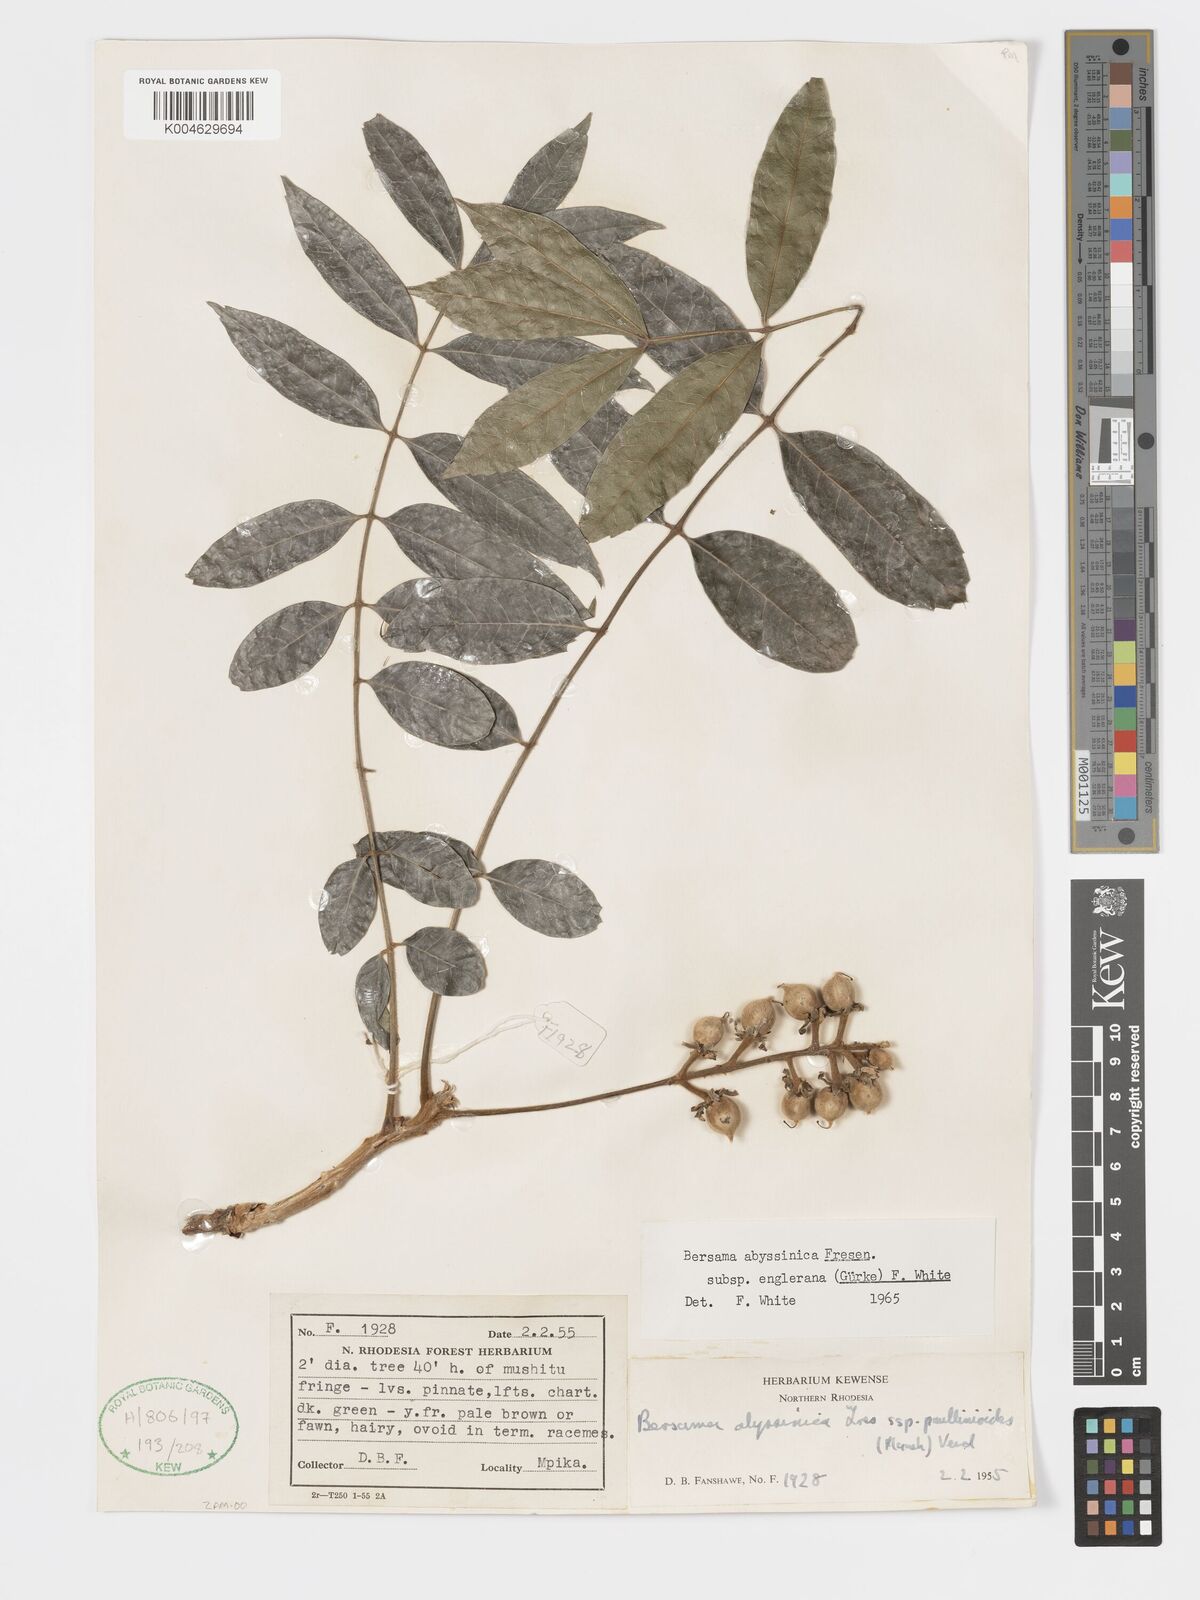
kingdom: Plantae
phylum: Tracheophyta
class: Magnoliopsida
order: Geraniales
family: Melianthaceae
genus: Bersama
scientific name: Bersama abyssinica
